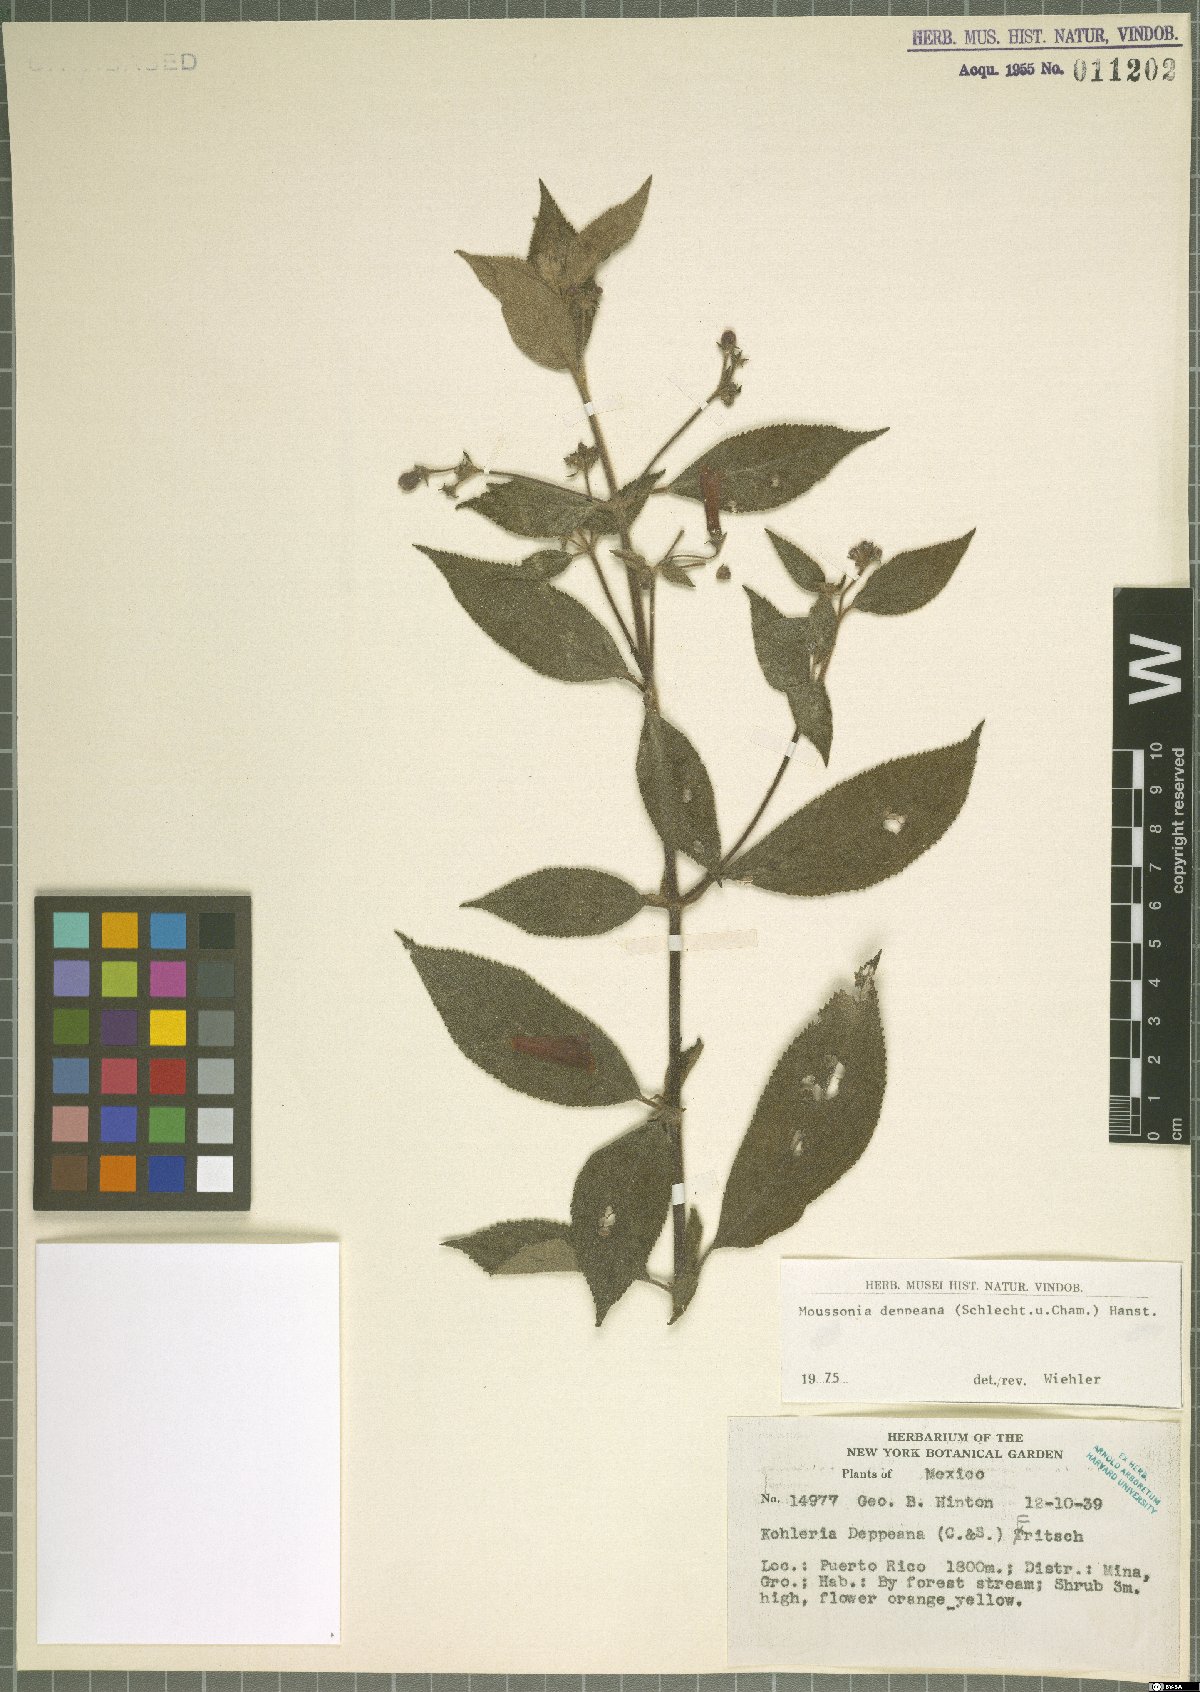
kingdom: Plantae
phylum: Tracheophyta
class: Magnoliopsida
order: Lamiales
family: Gesneriaceae
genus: Moussonia
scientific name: Moussonia deppeana
